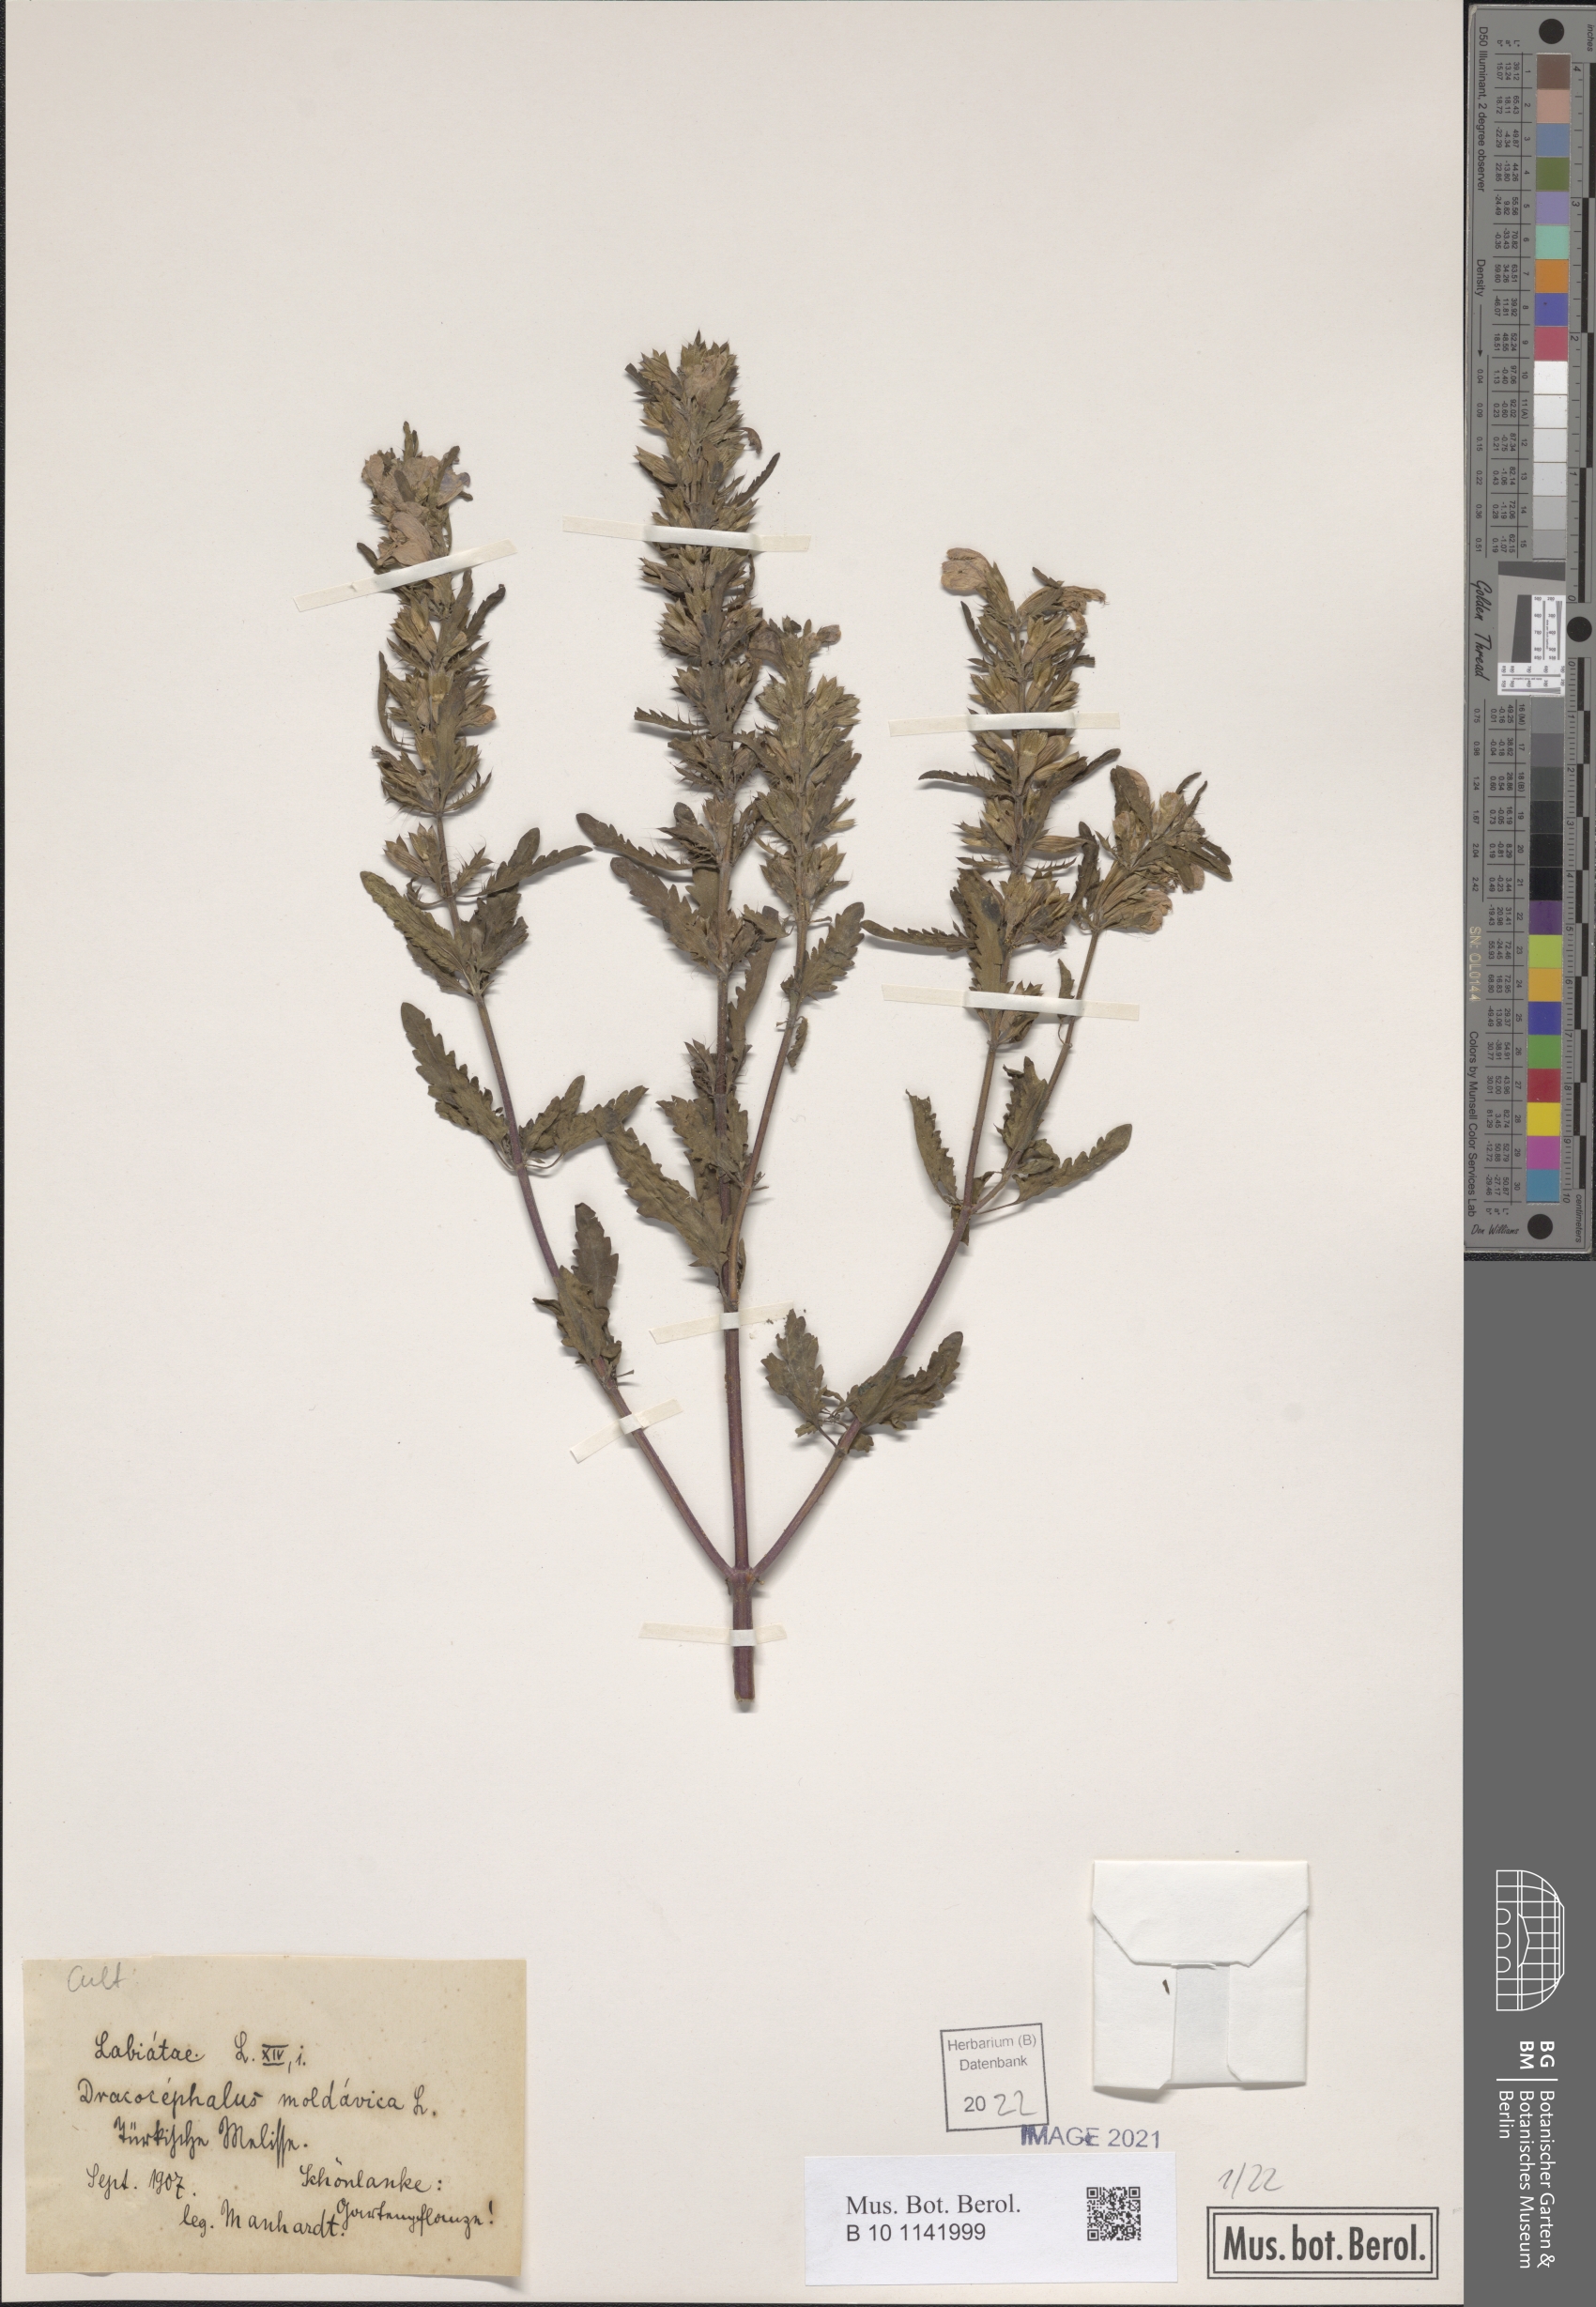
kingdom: Plantae
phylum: Tracheophyta
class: Magnoliopsida
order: Lamiales
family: Lamiaceae
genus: Dracocephalum
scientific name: Dracocephalum moldavica
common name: Moldavian dragonhead
